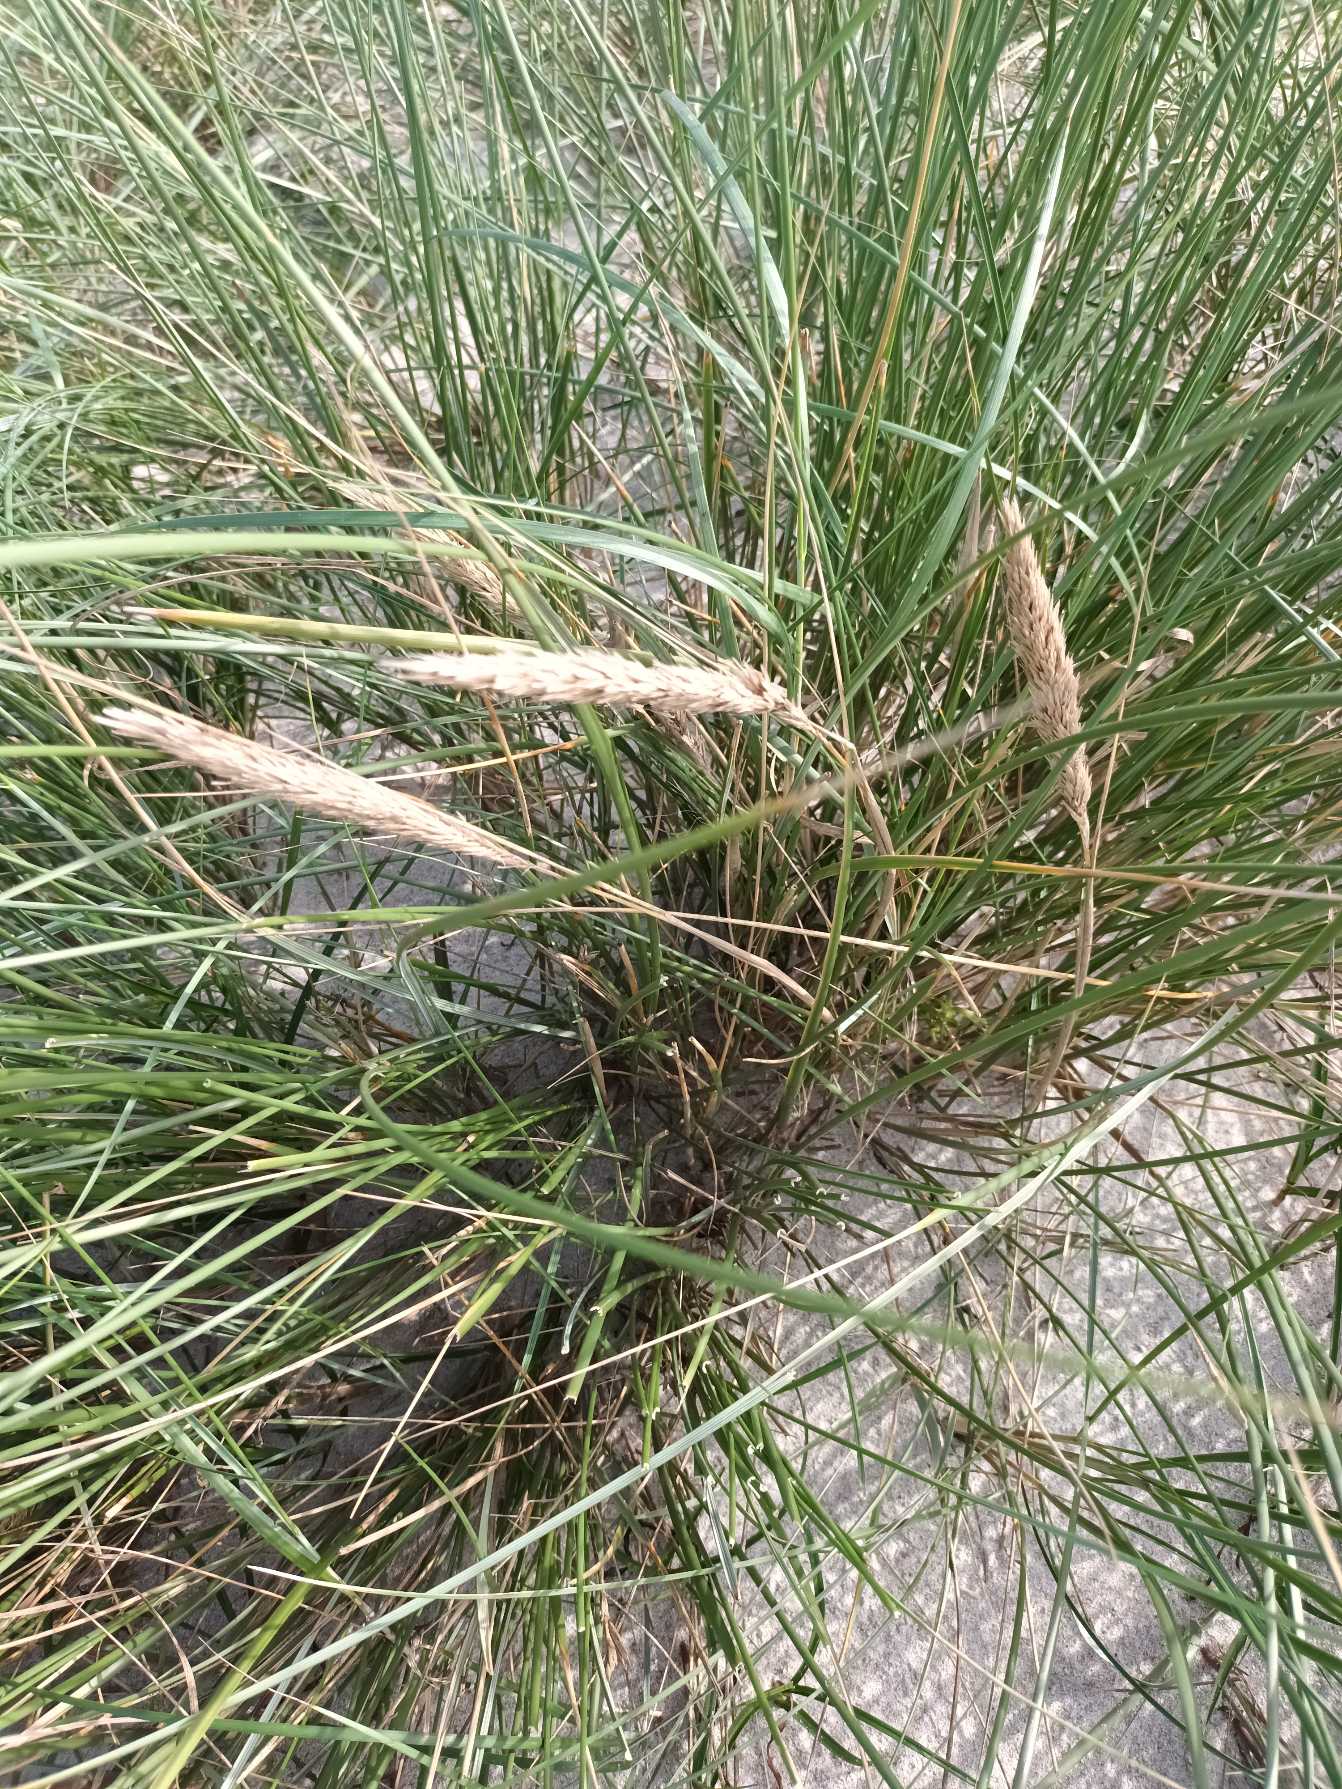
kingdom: Plantae
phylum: Tracheophyta
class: Liliopsida
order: Poales
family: Poaceae
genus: Calamagrostis
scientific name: Calamagrostis arenaria
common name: Sand-hjælme
